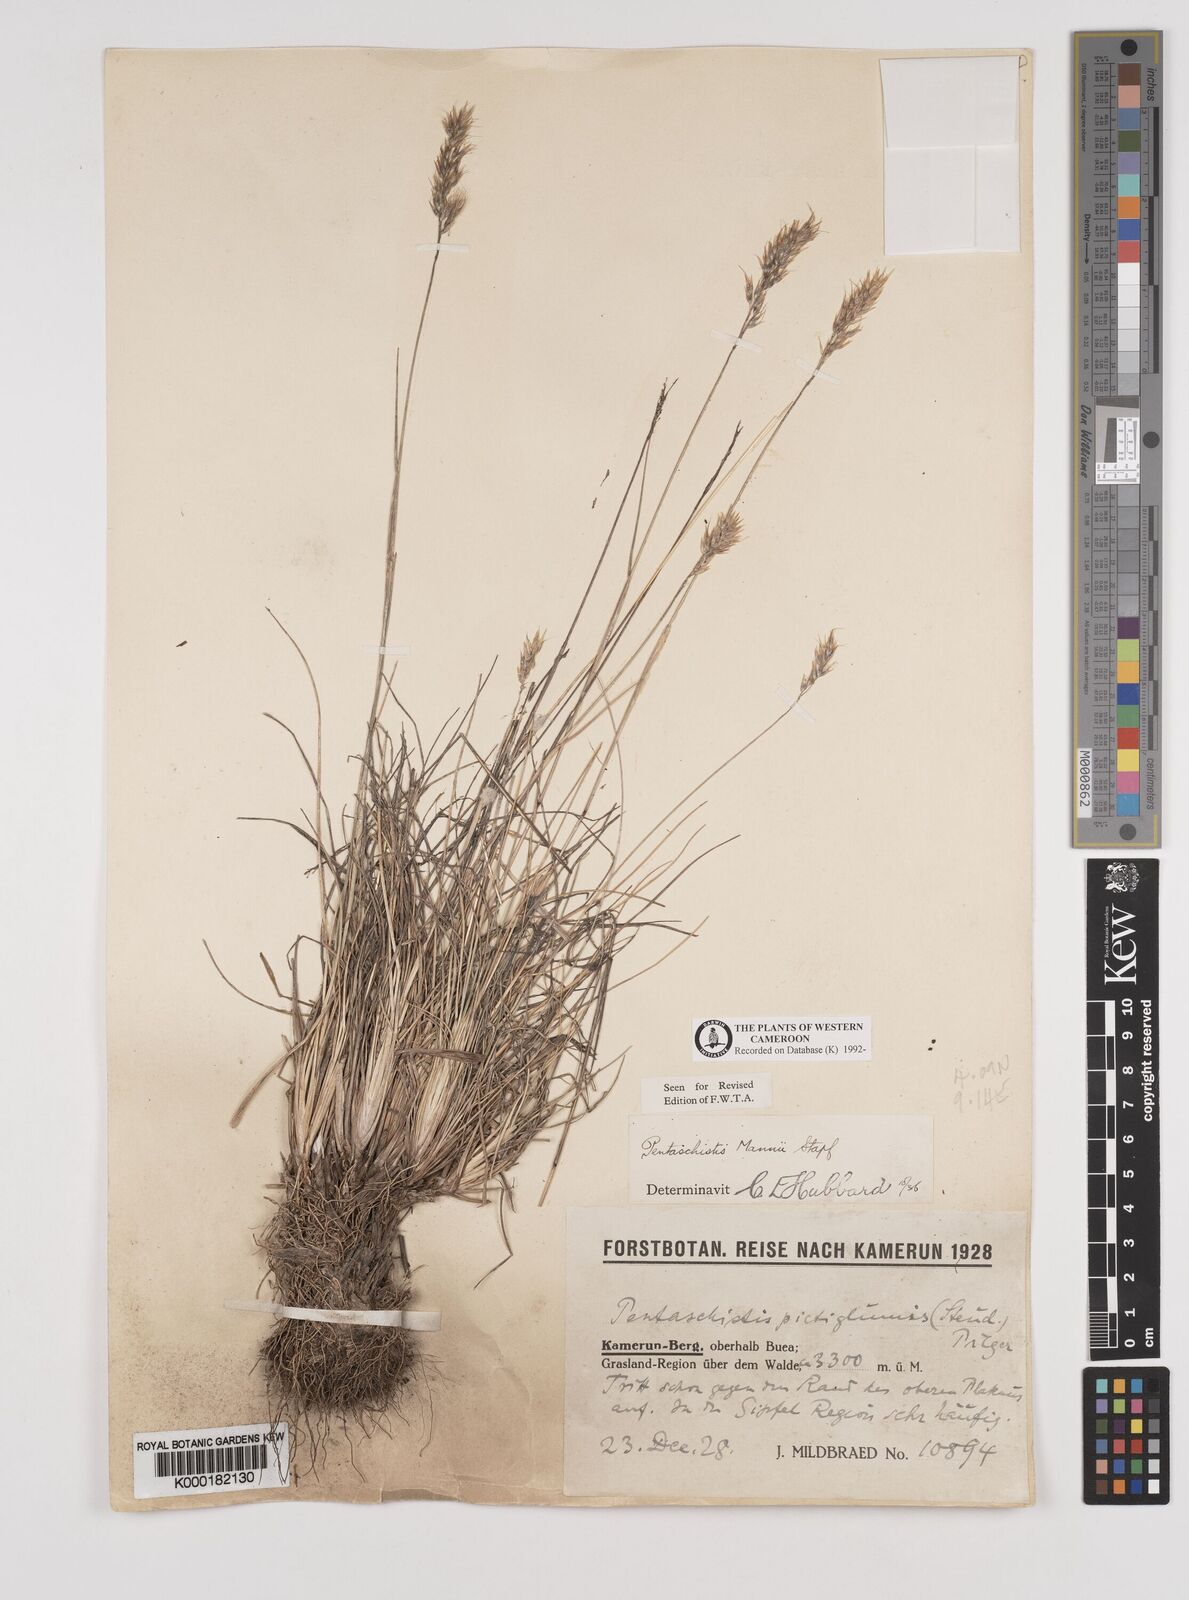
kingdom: Plantae
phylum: Tracheophyta
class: Liliopsida
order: Poales
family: Poaceae
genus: Pentameris
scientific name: Pentameris pictigluma
